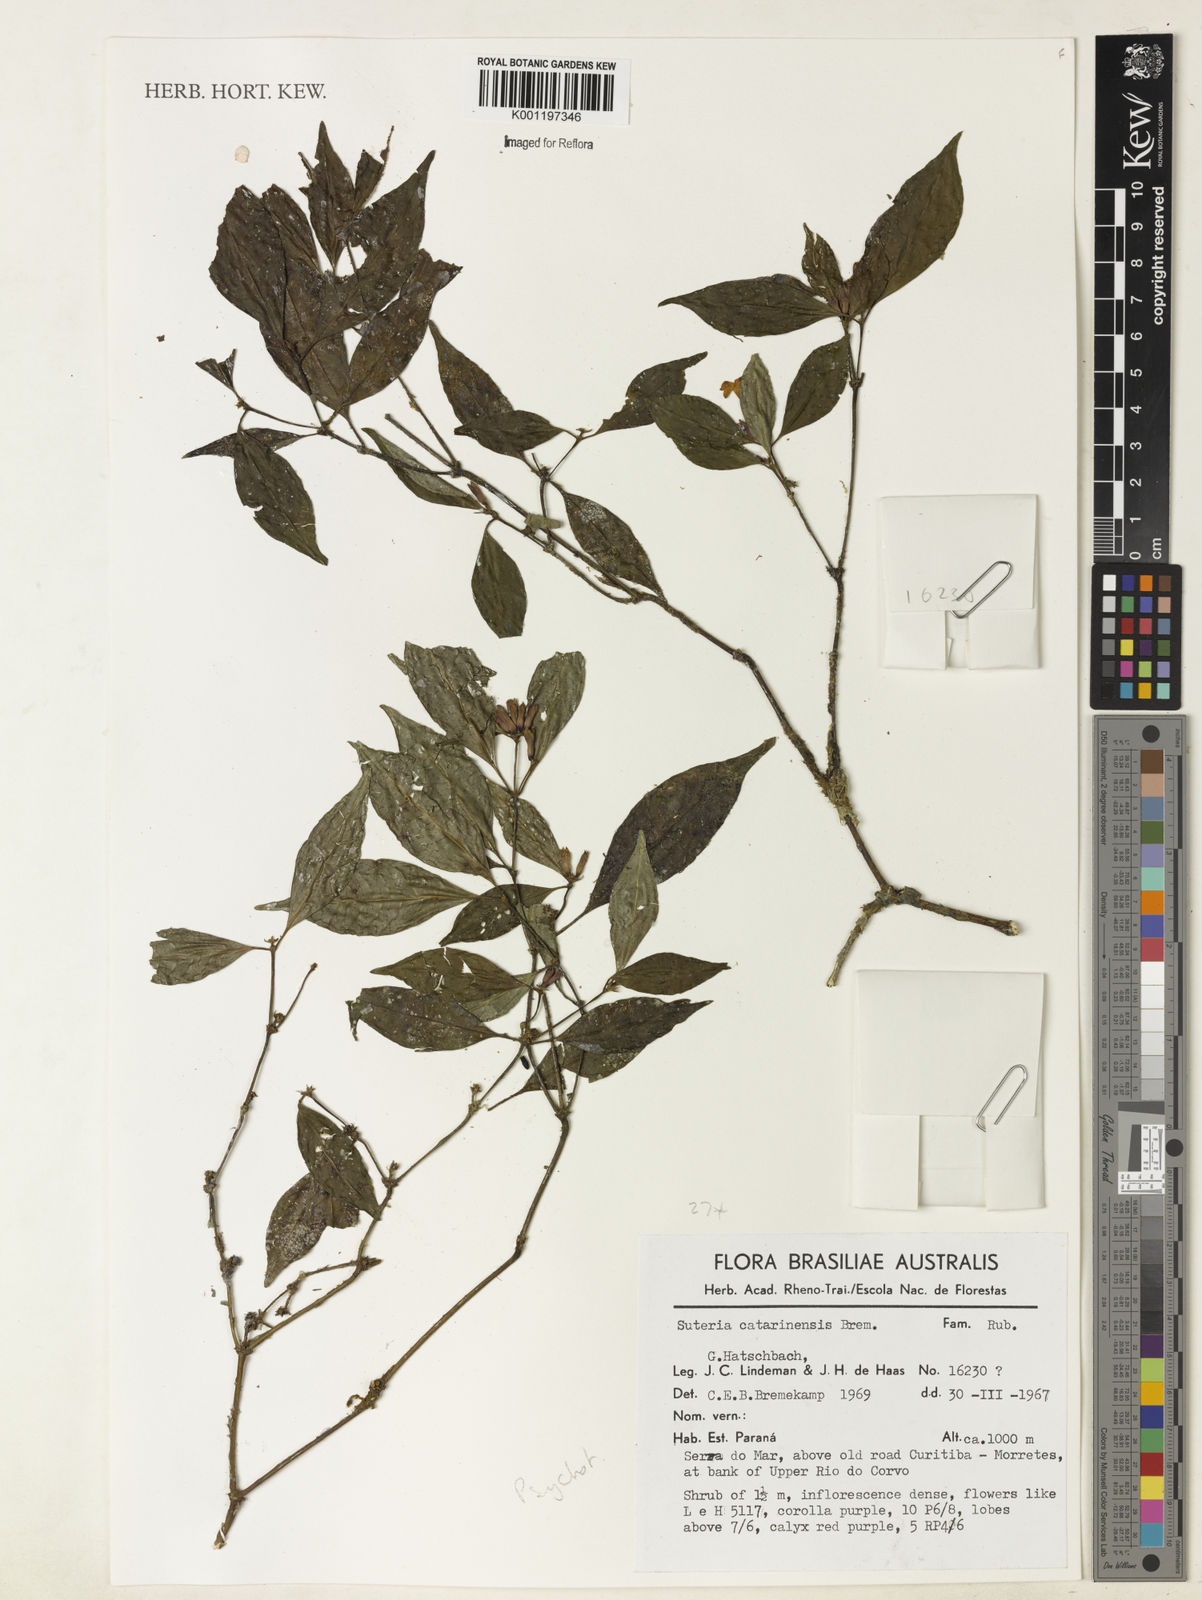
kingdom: Plantae
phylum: Tracheophyta
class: Magnoliopsida
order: Gentianales
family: Rubiaceae
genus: Psychotria
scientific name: Psychotria
